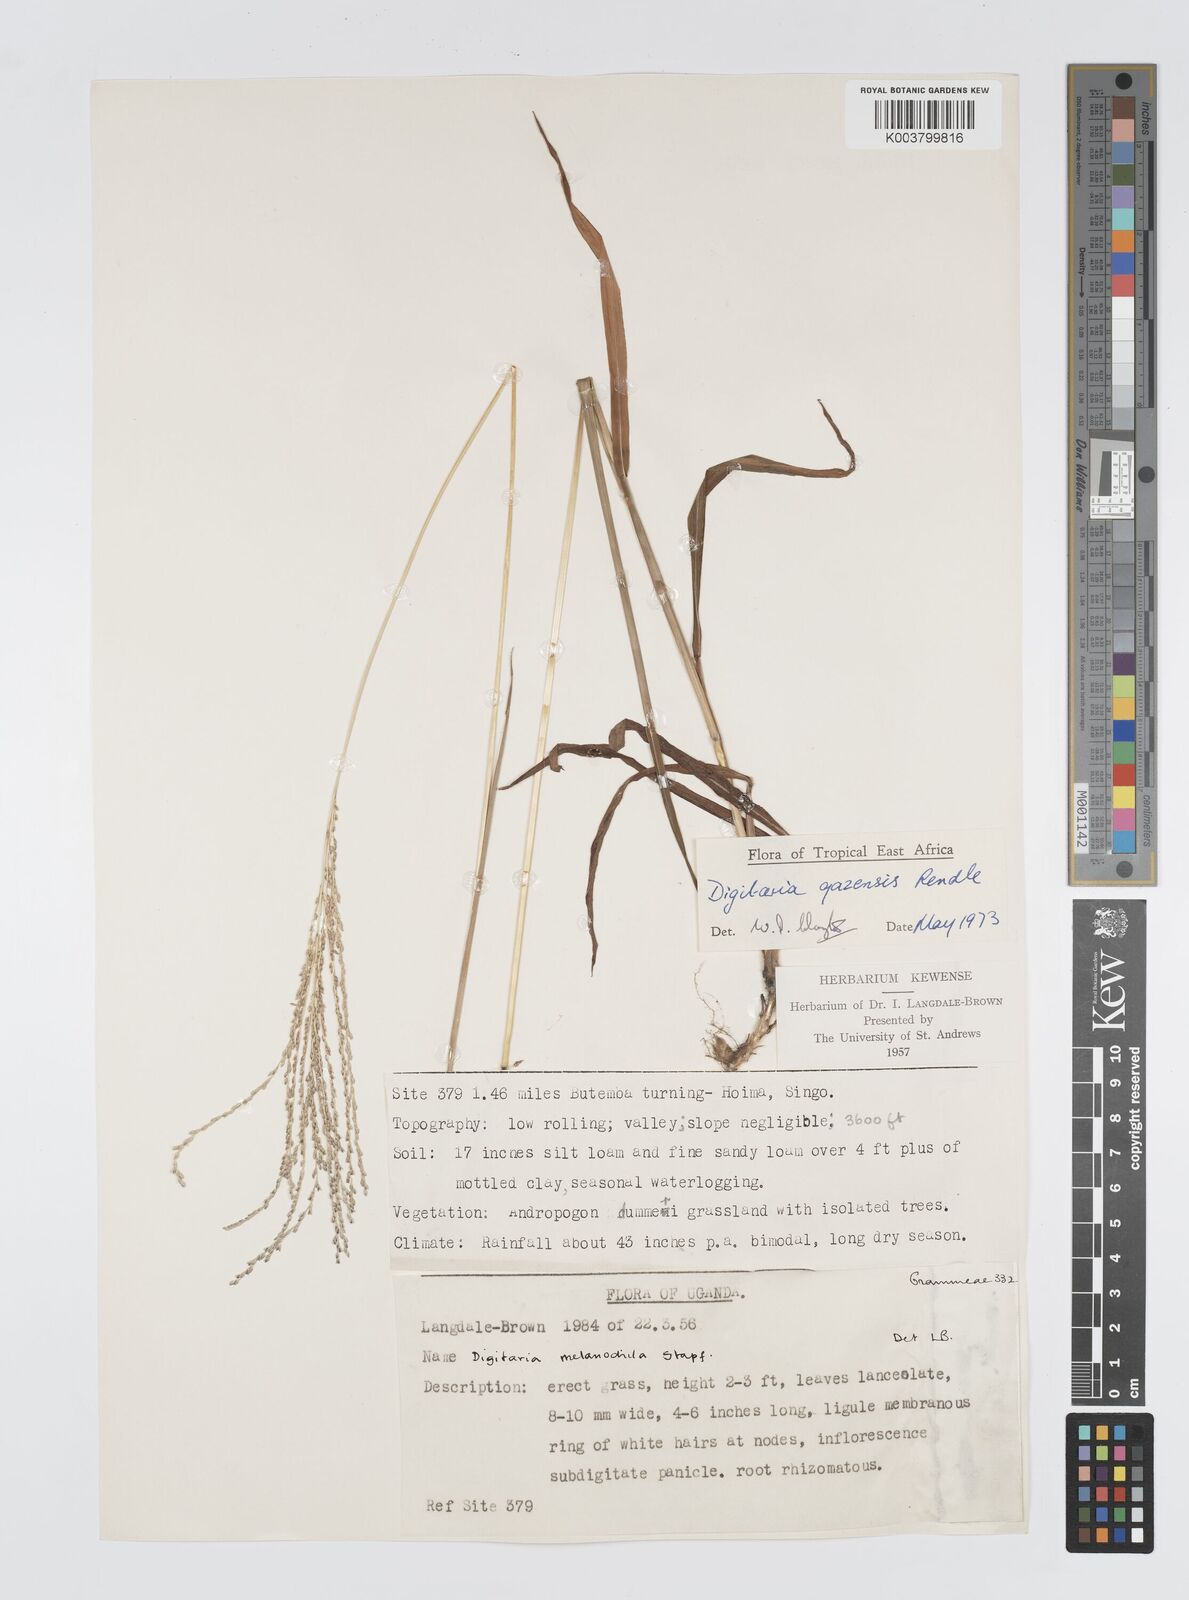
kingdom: Plantae
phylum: Tracheophyta
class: Liliopsida
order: Poales
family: Poaceae
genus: Digitaria
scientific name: Digitaria gazensis
